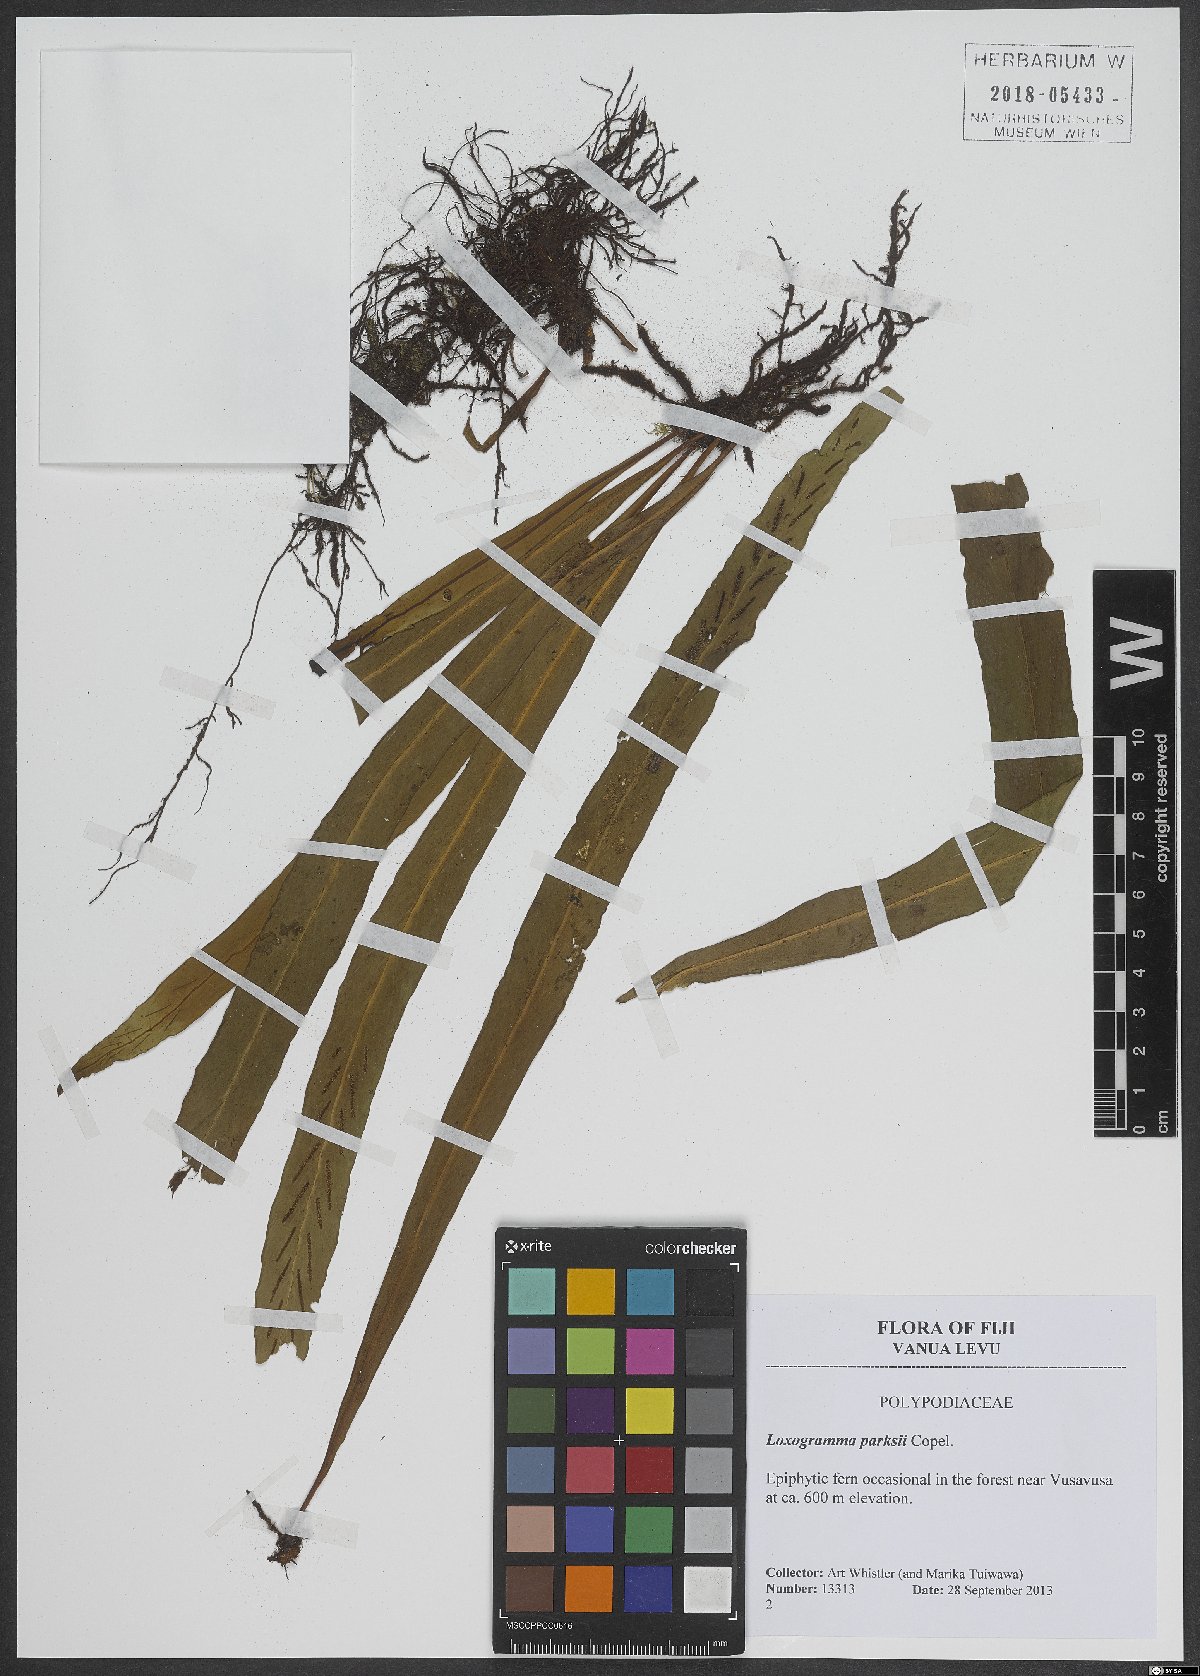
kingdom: Plantae
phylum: Tracheophyta
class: Polypodiopsida
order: Polypodiales
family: Polypodiaceae
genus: Loxogramme
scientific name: Loxogramme parksii
